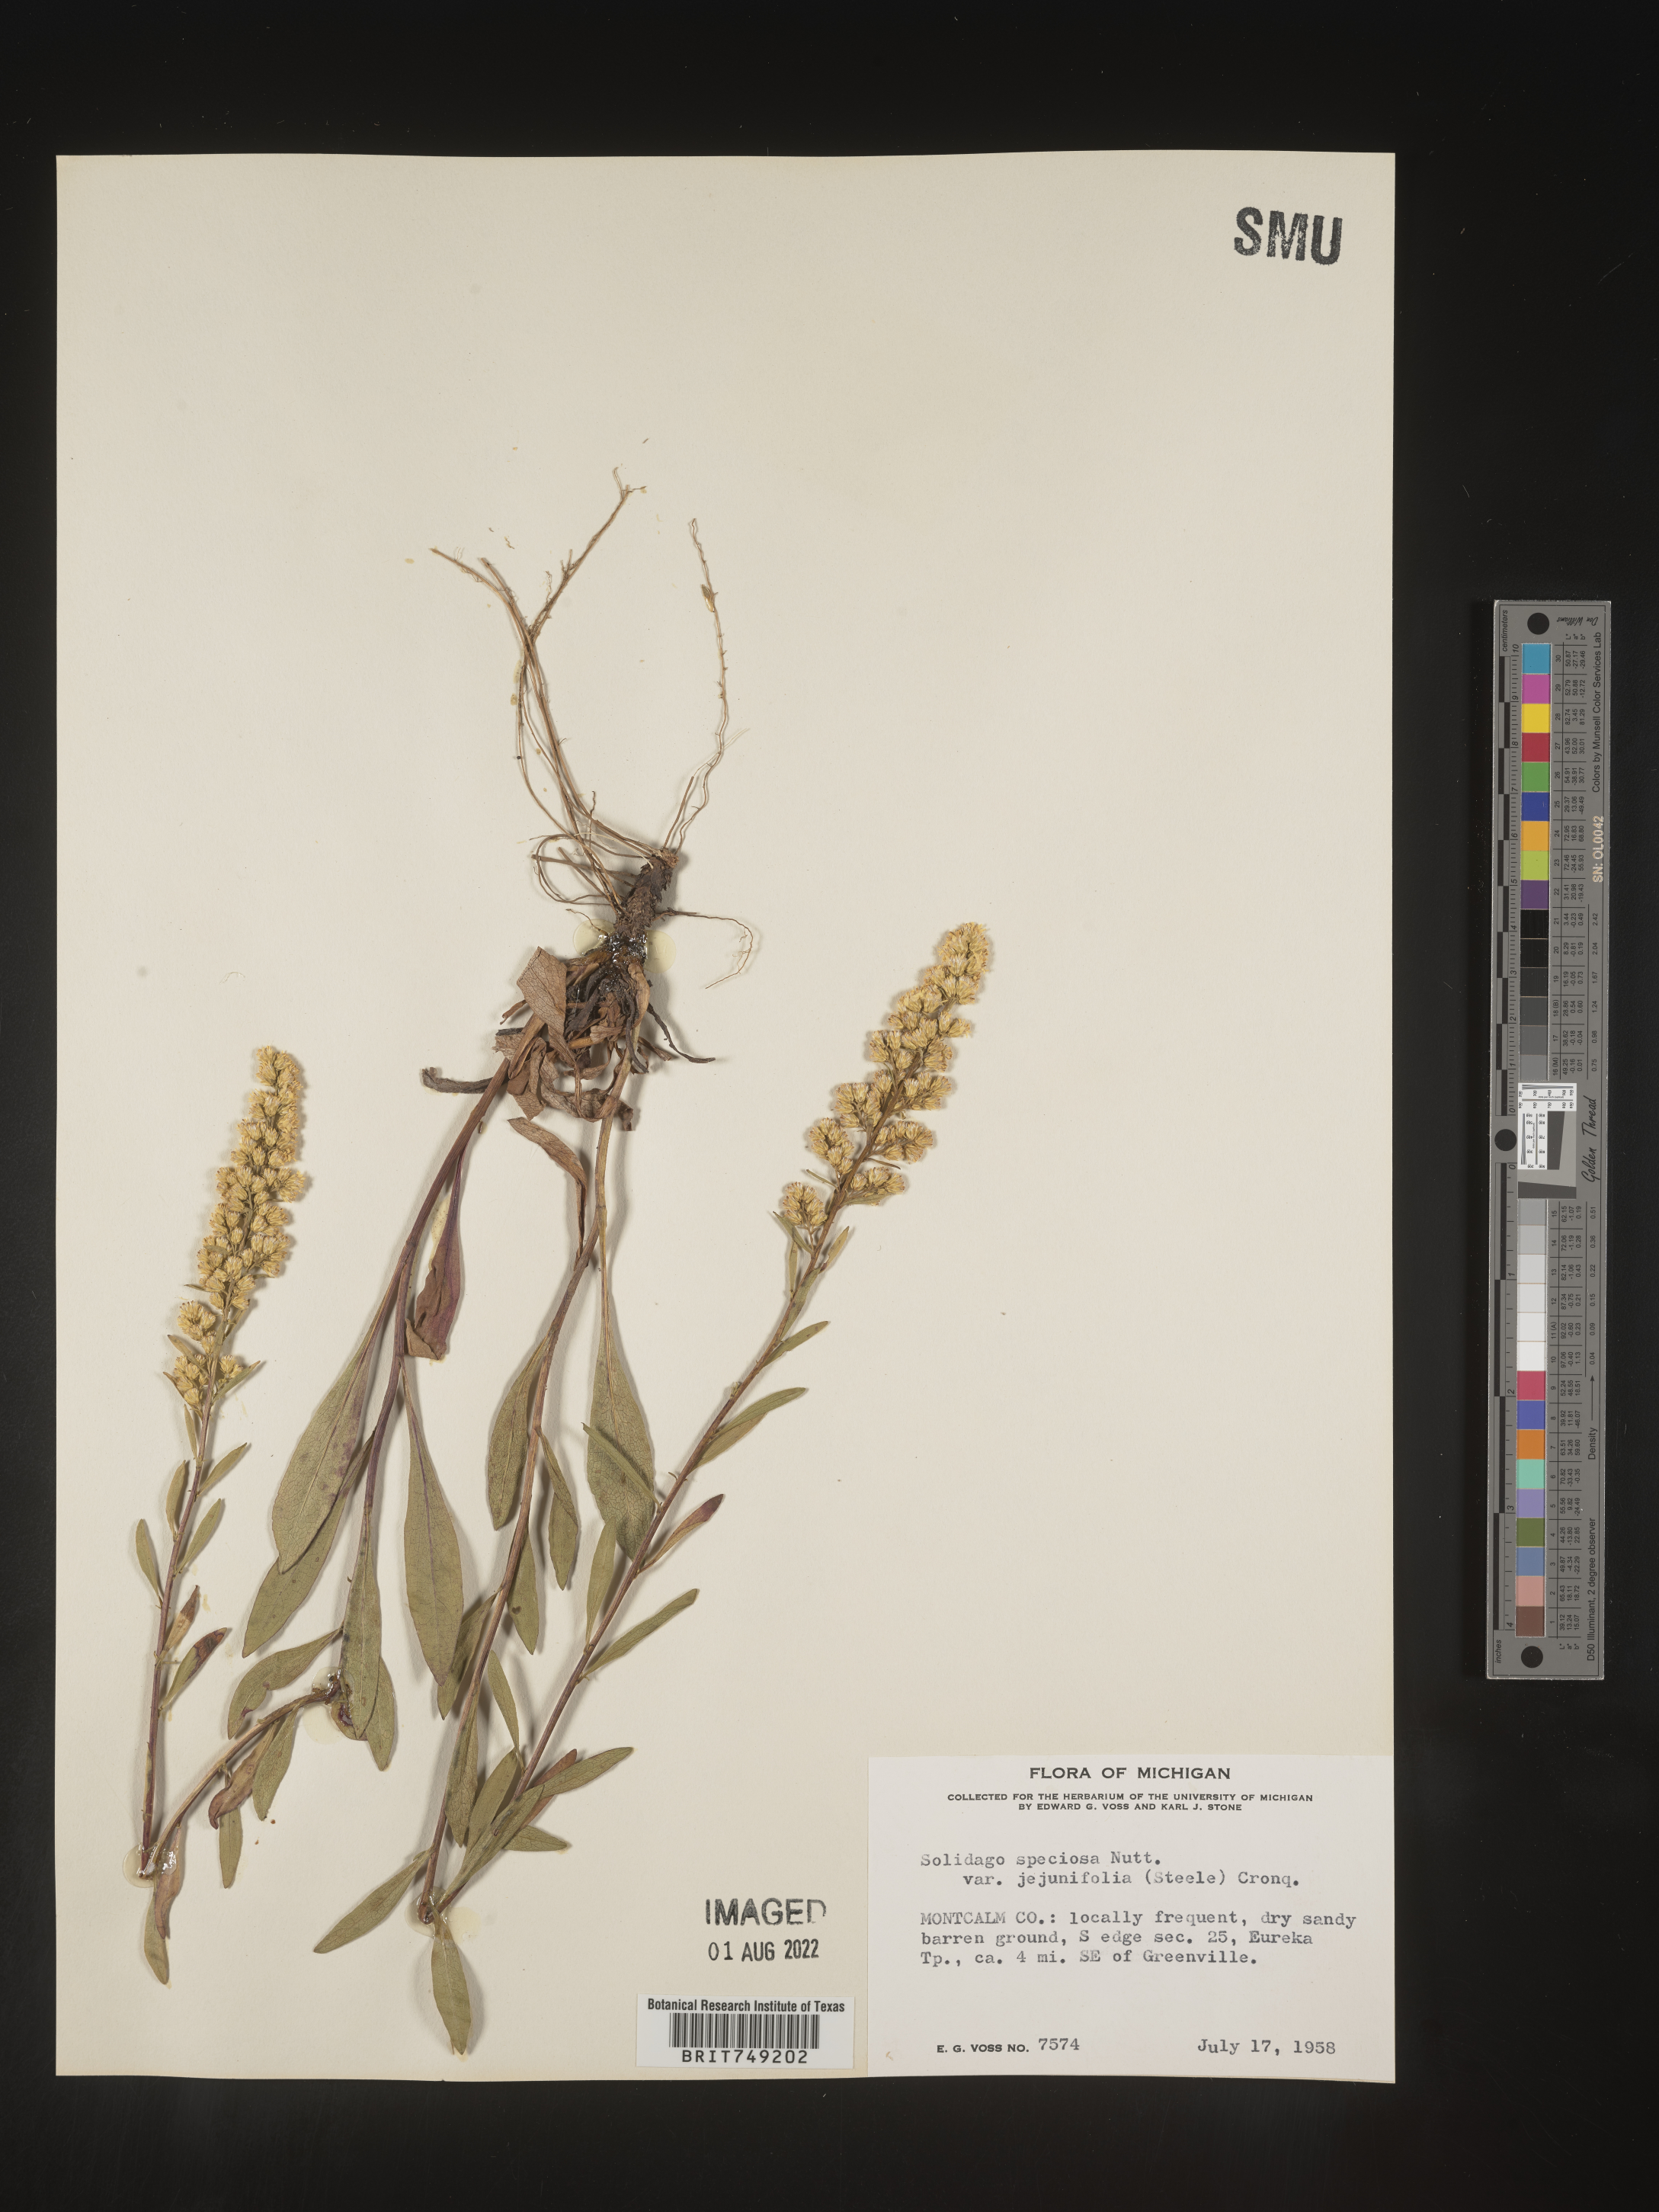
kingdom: Plantae
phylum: Tracheophyta
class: Magnoliopsida
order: Asterales
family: Asteraceae
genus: Solidago
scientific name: Solidago speciosa
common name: Showy goldenrod
